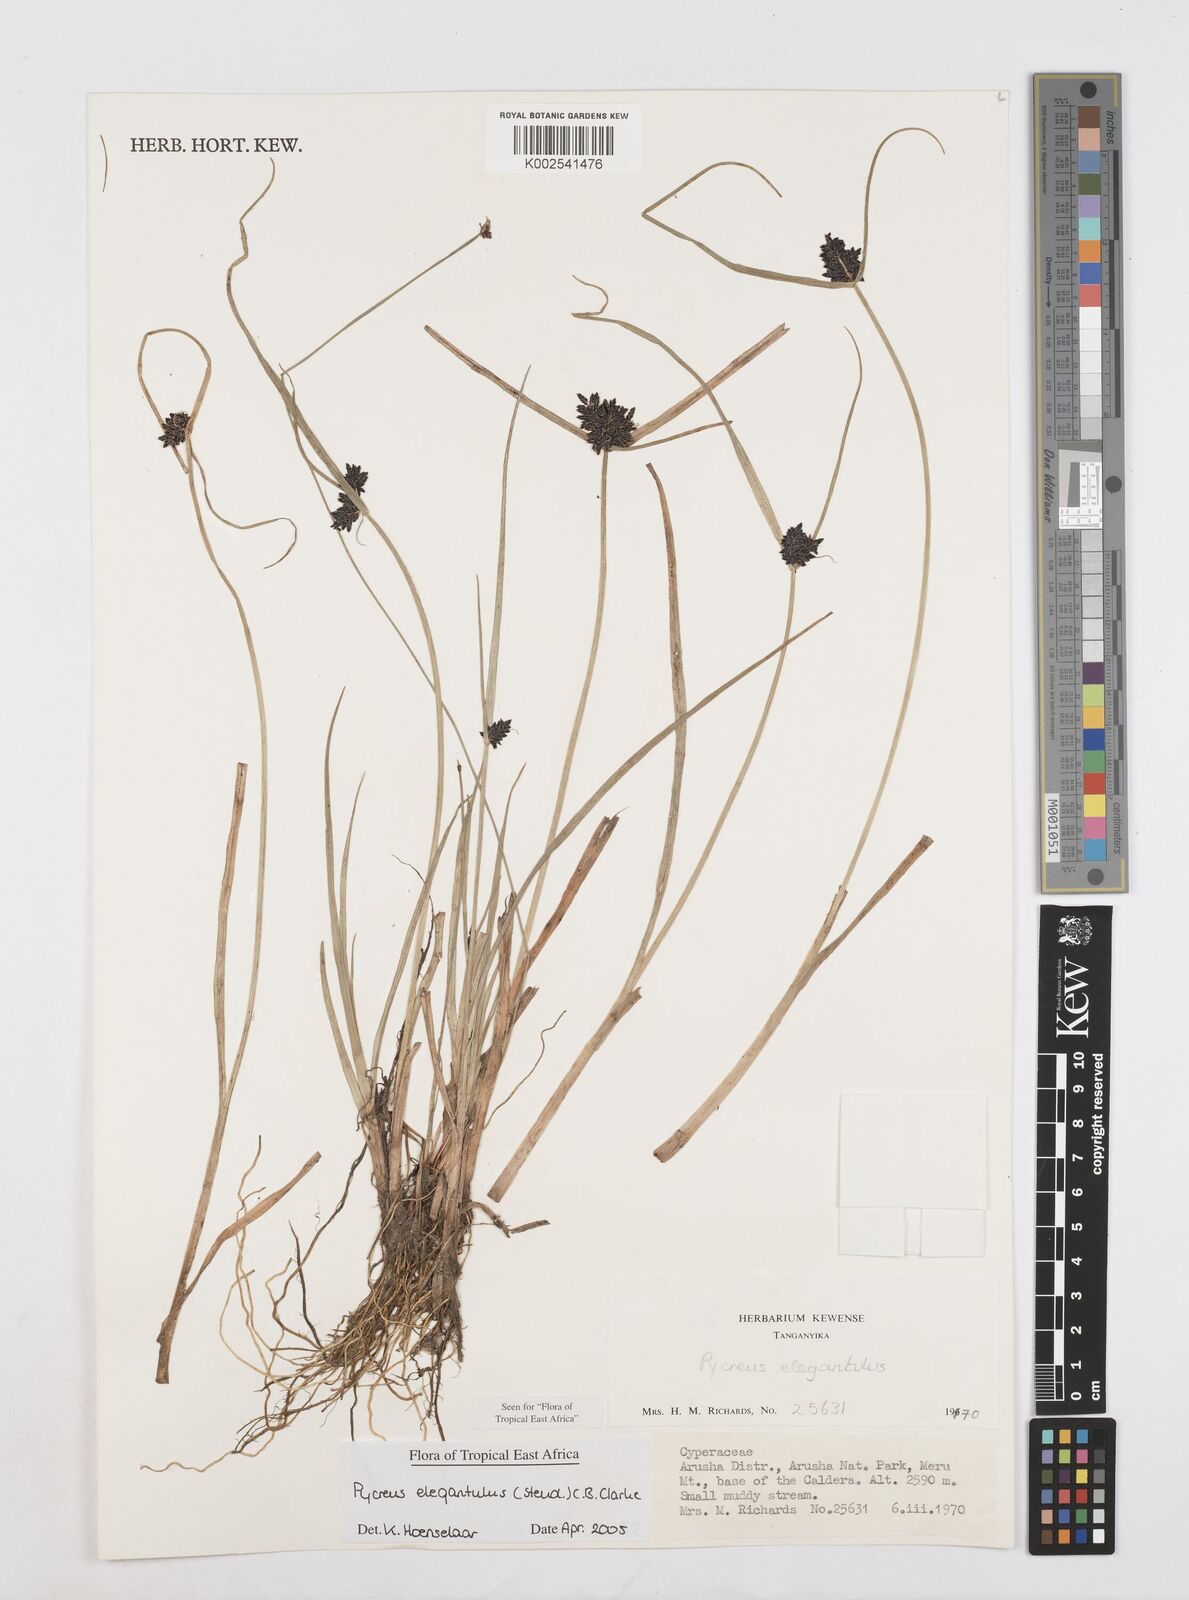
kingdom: Plantae
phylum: Tracheophyta
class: Liliopsida
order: Poales
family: Cyperaceae
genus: Cyperus
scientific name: Cyperus elegantulus
